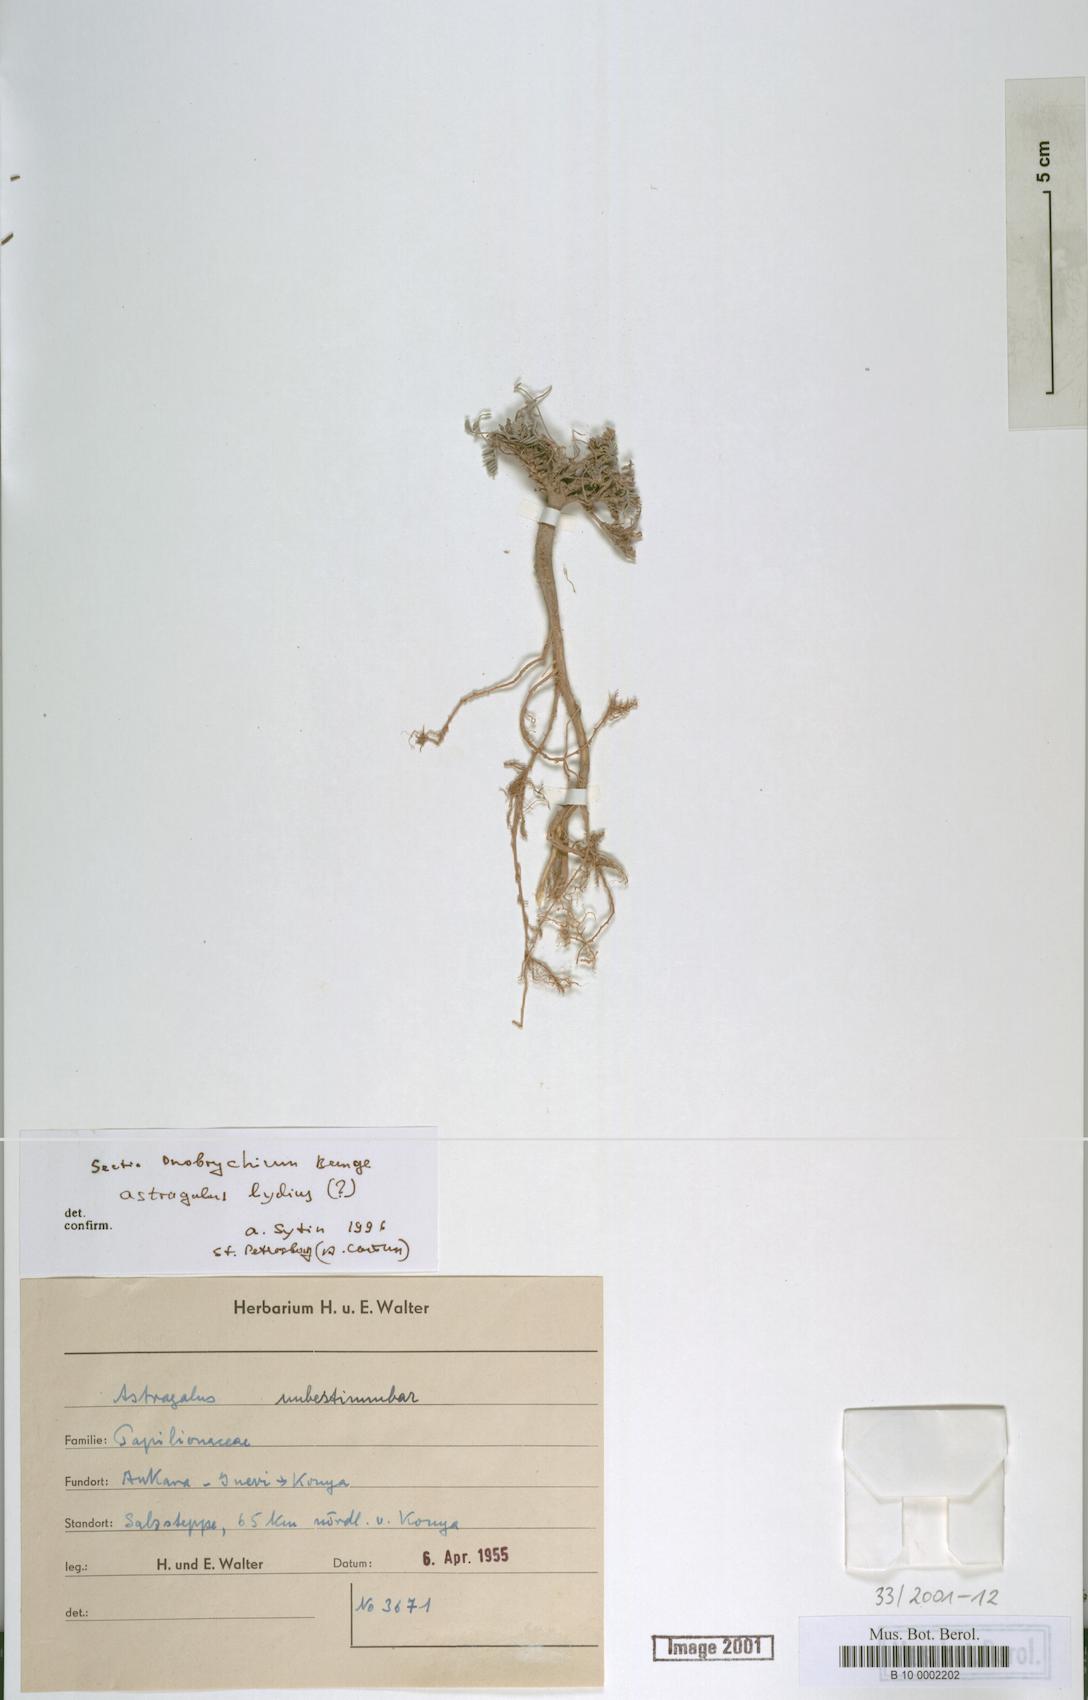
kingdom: Plantae
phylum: Tracheophyta
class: Magnoliopsida
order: Fabales
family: Fabaceae
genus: Astragalus
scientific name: Astragalus
